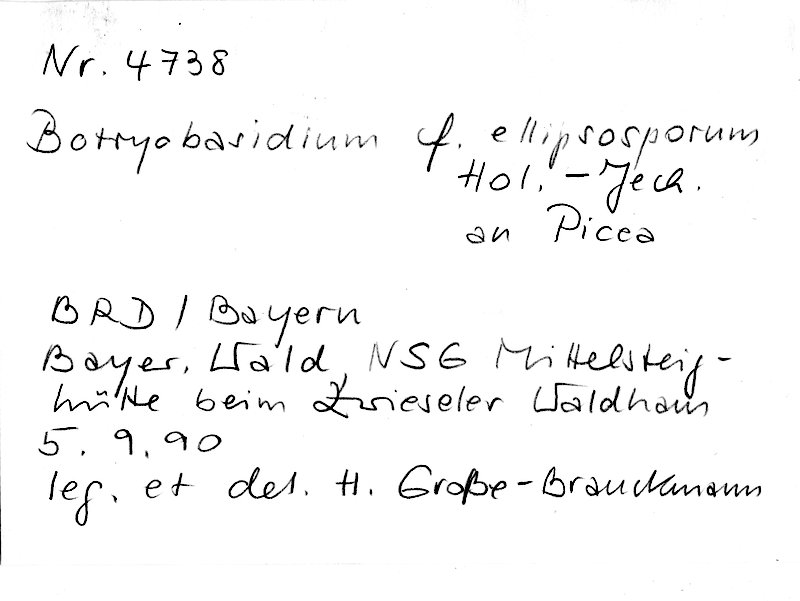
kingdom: Fungi
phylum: Basidiomycota
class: Agaricomycetes
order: Cantharellales
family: Botryobasidiaceae
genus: Botryobasidium
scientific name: Botryobasidium ellipsosporum
